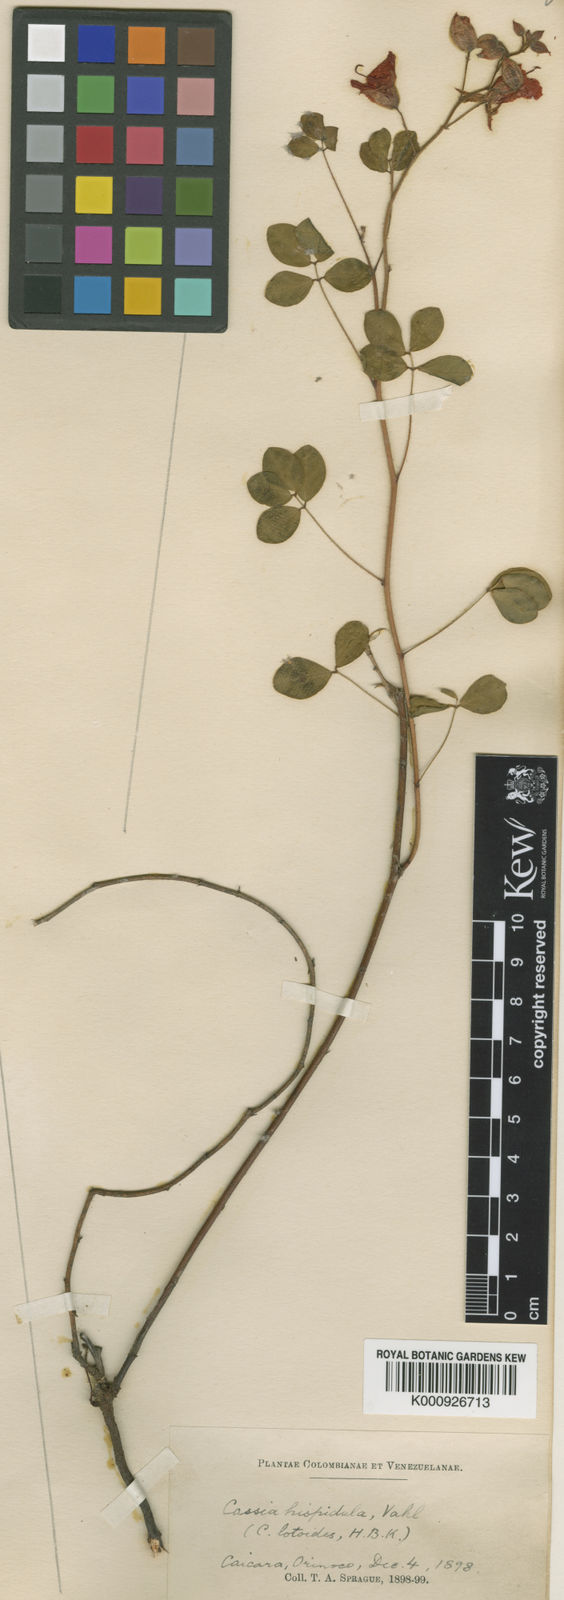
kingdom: Plantae
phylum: Tracheophyta
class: Magnoliopsida
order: Fabales
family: Fabaceae
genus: Chamaecrista
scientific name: Chamaecrista hispidula
